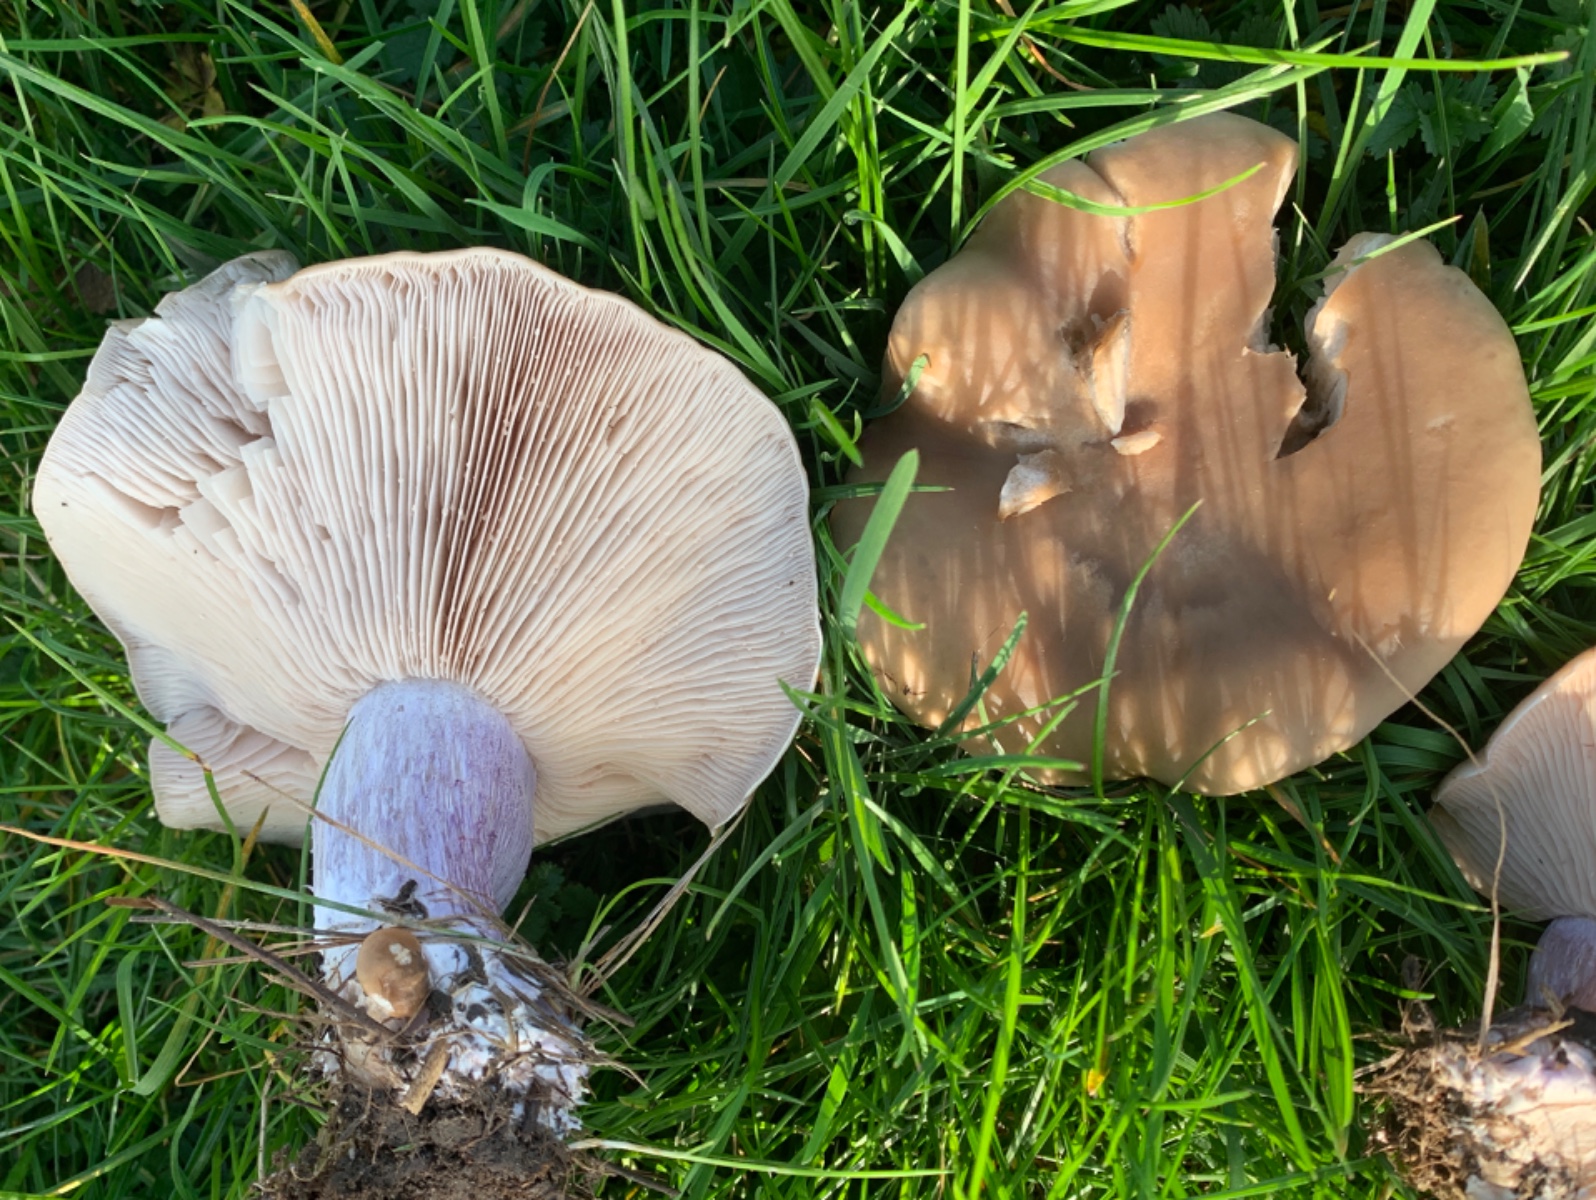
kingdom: Fungi
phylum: Basidiomycota
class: Agaricomycetes
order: Agaricales
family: Tricholomataceae
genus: Lepista
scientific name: Lepista personata
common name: bleg hekseringshat
